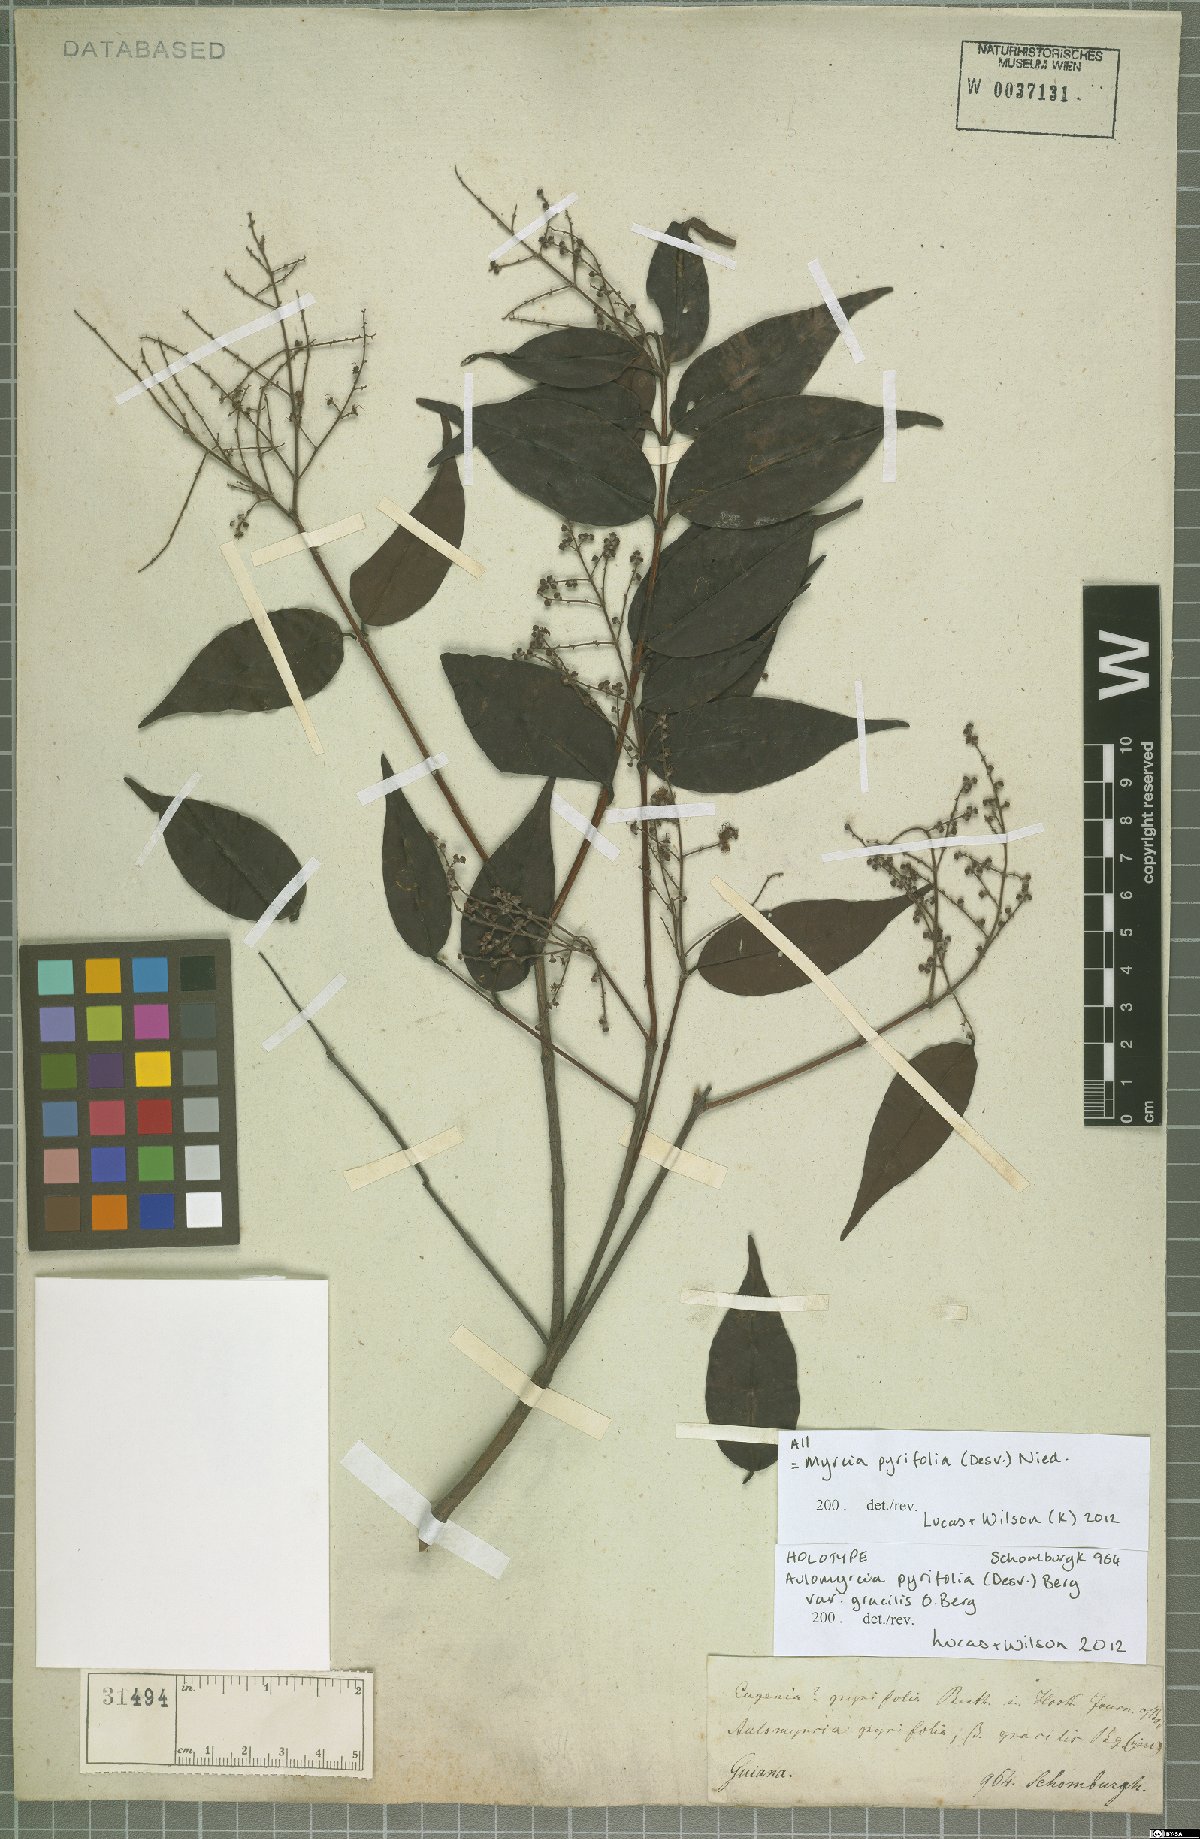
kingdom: Plantae
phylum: Tracheophyta
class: Magnoliopsida
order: Myrtales
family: Myrtaceae
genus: Myrcia
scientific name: Myrcia pyrifolia
